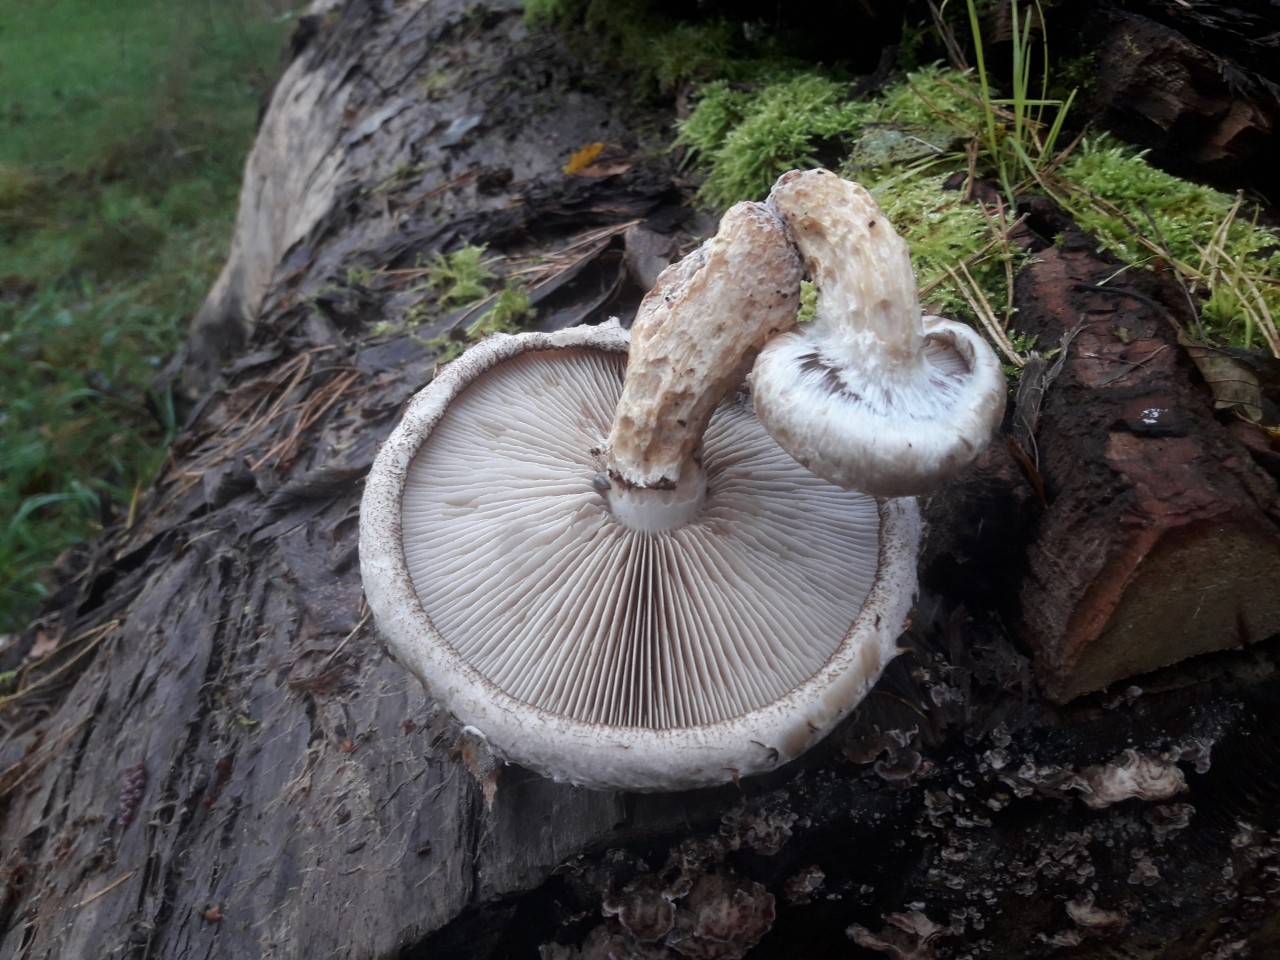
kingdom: Fungi
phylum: Basidiomycota
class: Agaricomycetes
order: Agaricales
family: Strophariaceae
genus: Pholiota
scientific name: Pholiota populnea
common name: poppel-kæmpeskælhat
